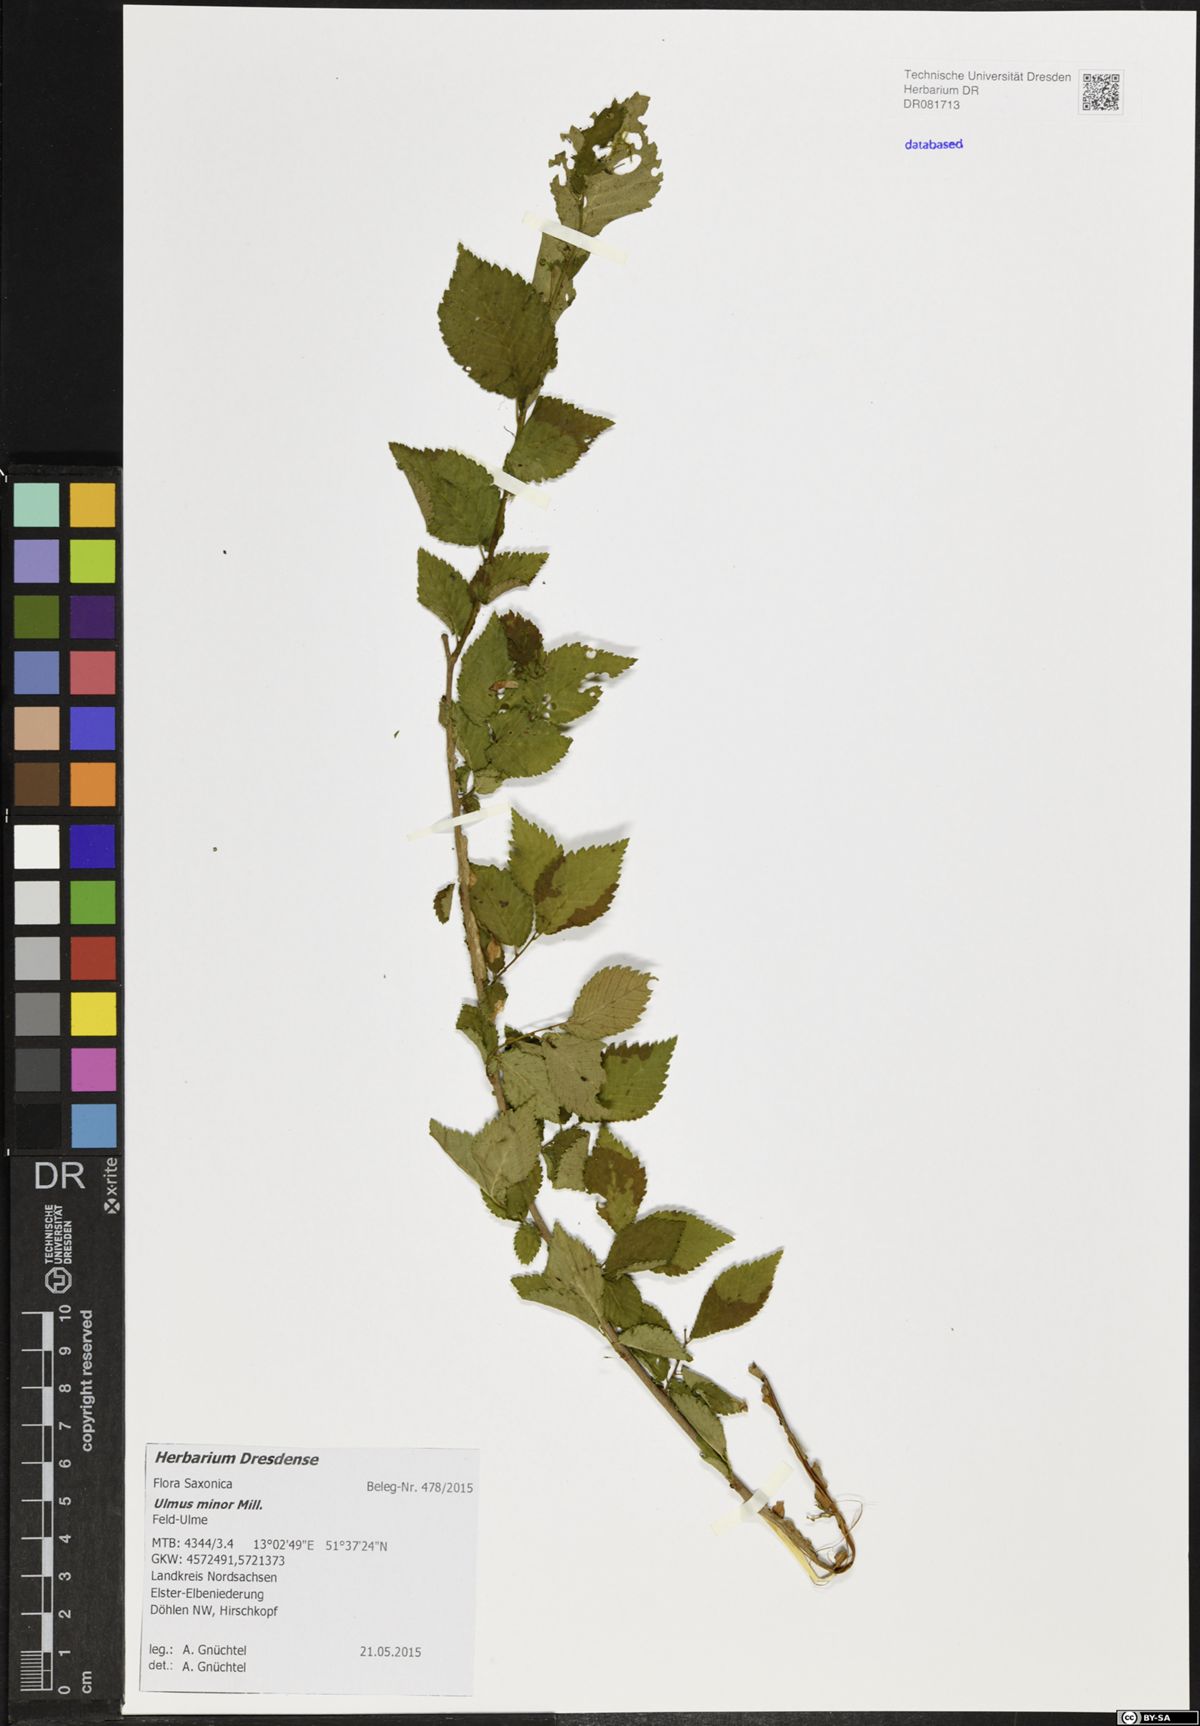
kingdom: Plantae
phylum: Tracheophyta
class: Magnoliopsida
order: Rosales
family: Ulmaceae
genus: Ulmus
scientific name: Ulmus minor
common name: Small-leaved elm
